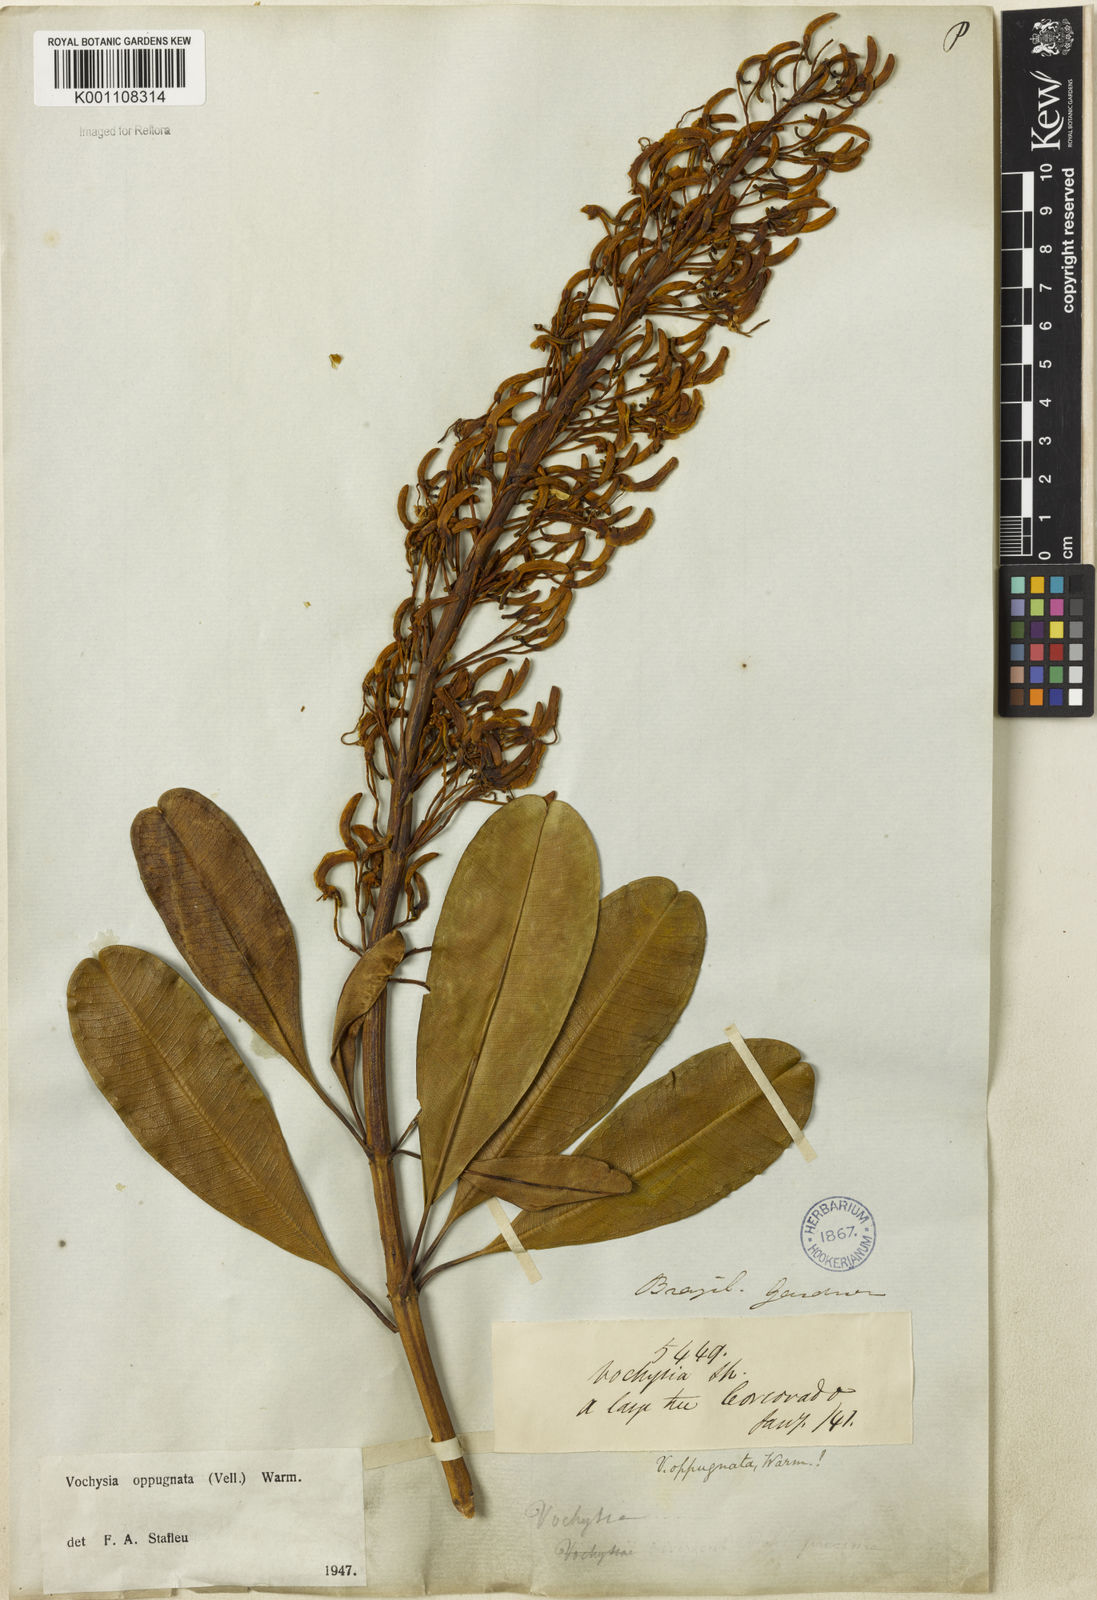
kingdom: Plantae
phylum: Tracheophyta
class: Magnoliopsida
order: Myrtales
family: Vochysiaceae
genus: Vochysia
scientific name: Vochysia oppugnata
